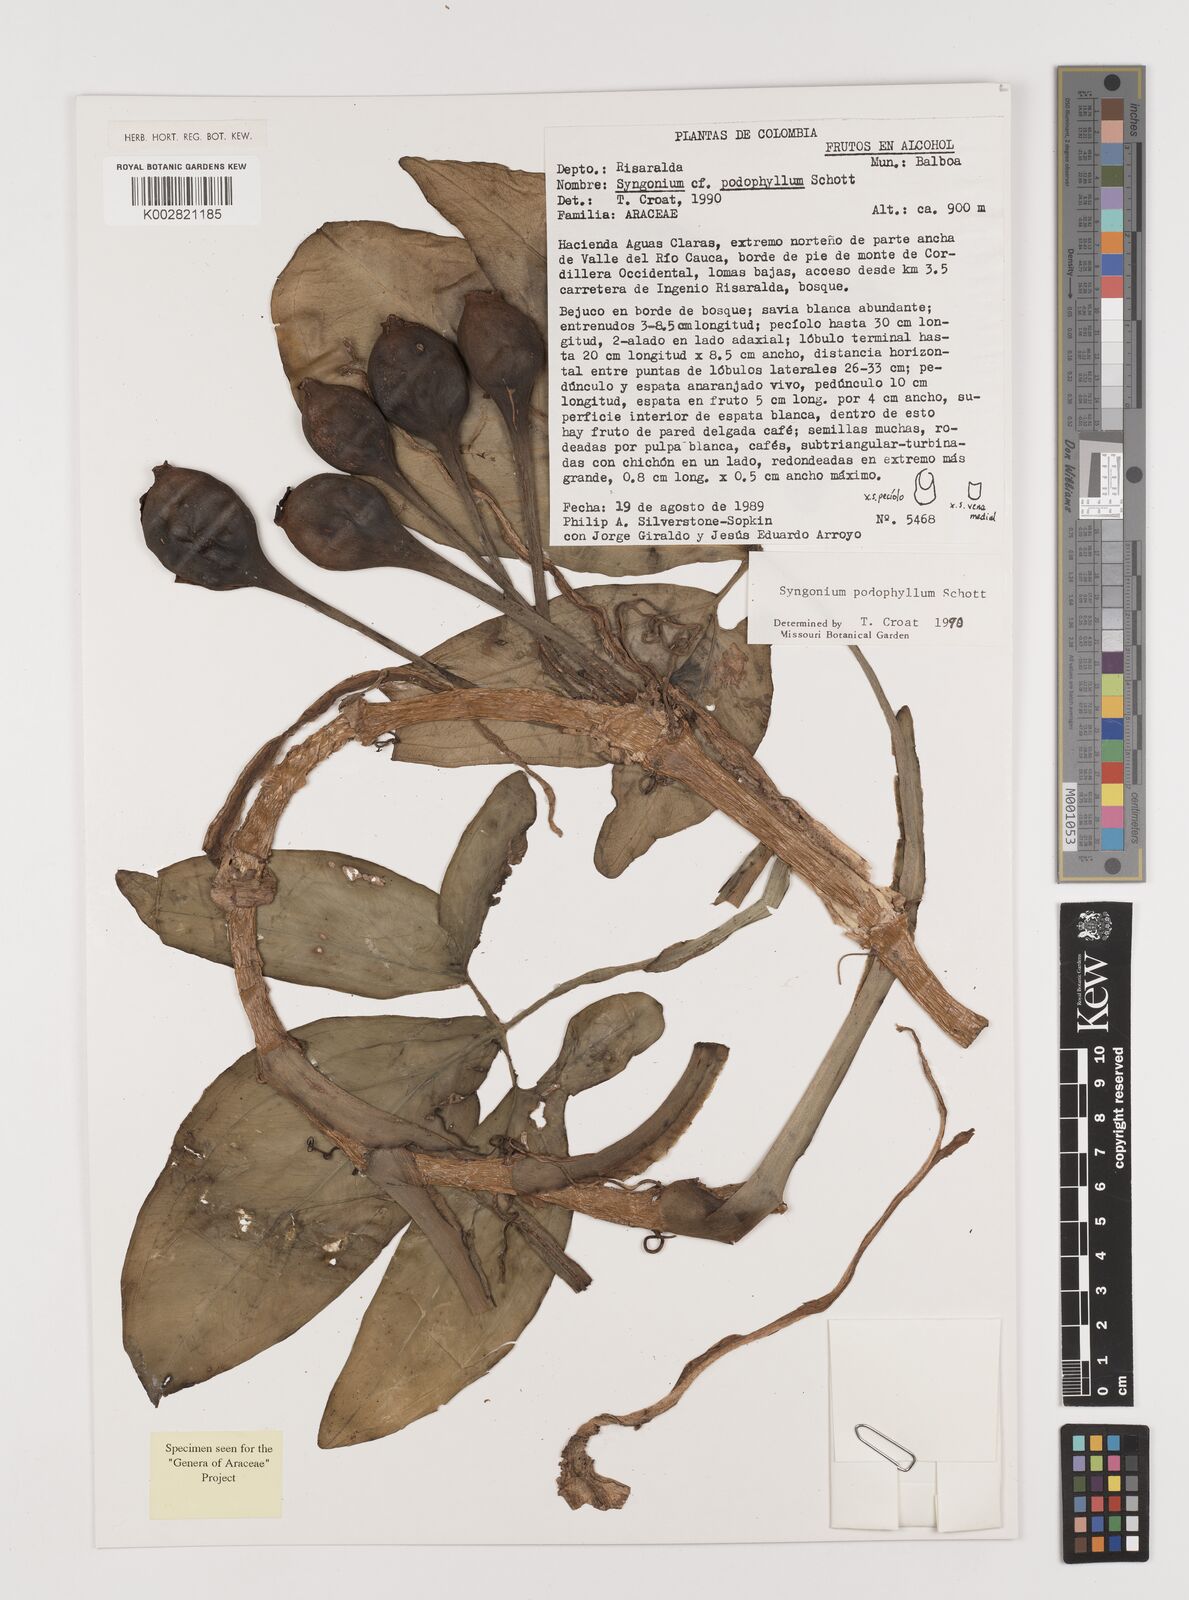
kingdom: Plantae
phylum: Tracheophyta
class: Liliopsida
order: Alismatales
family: Araceae
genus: Syngonium
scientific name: Syngonium podophyllum
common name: American evergreen
